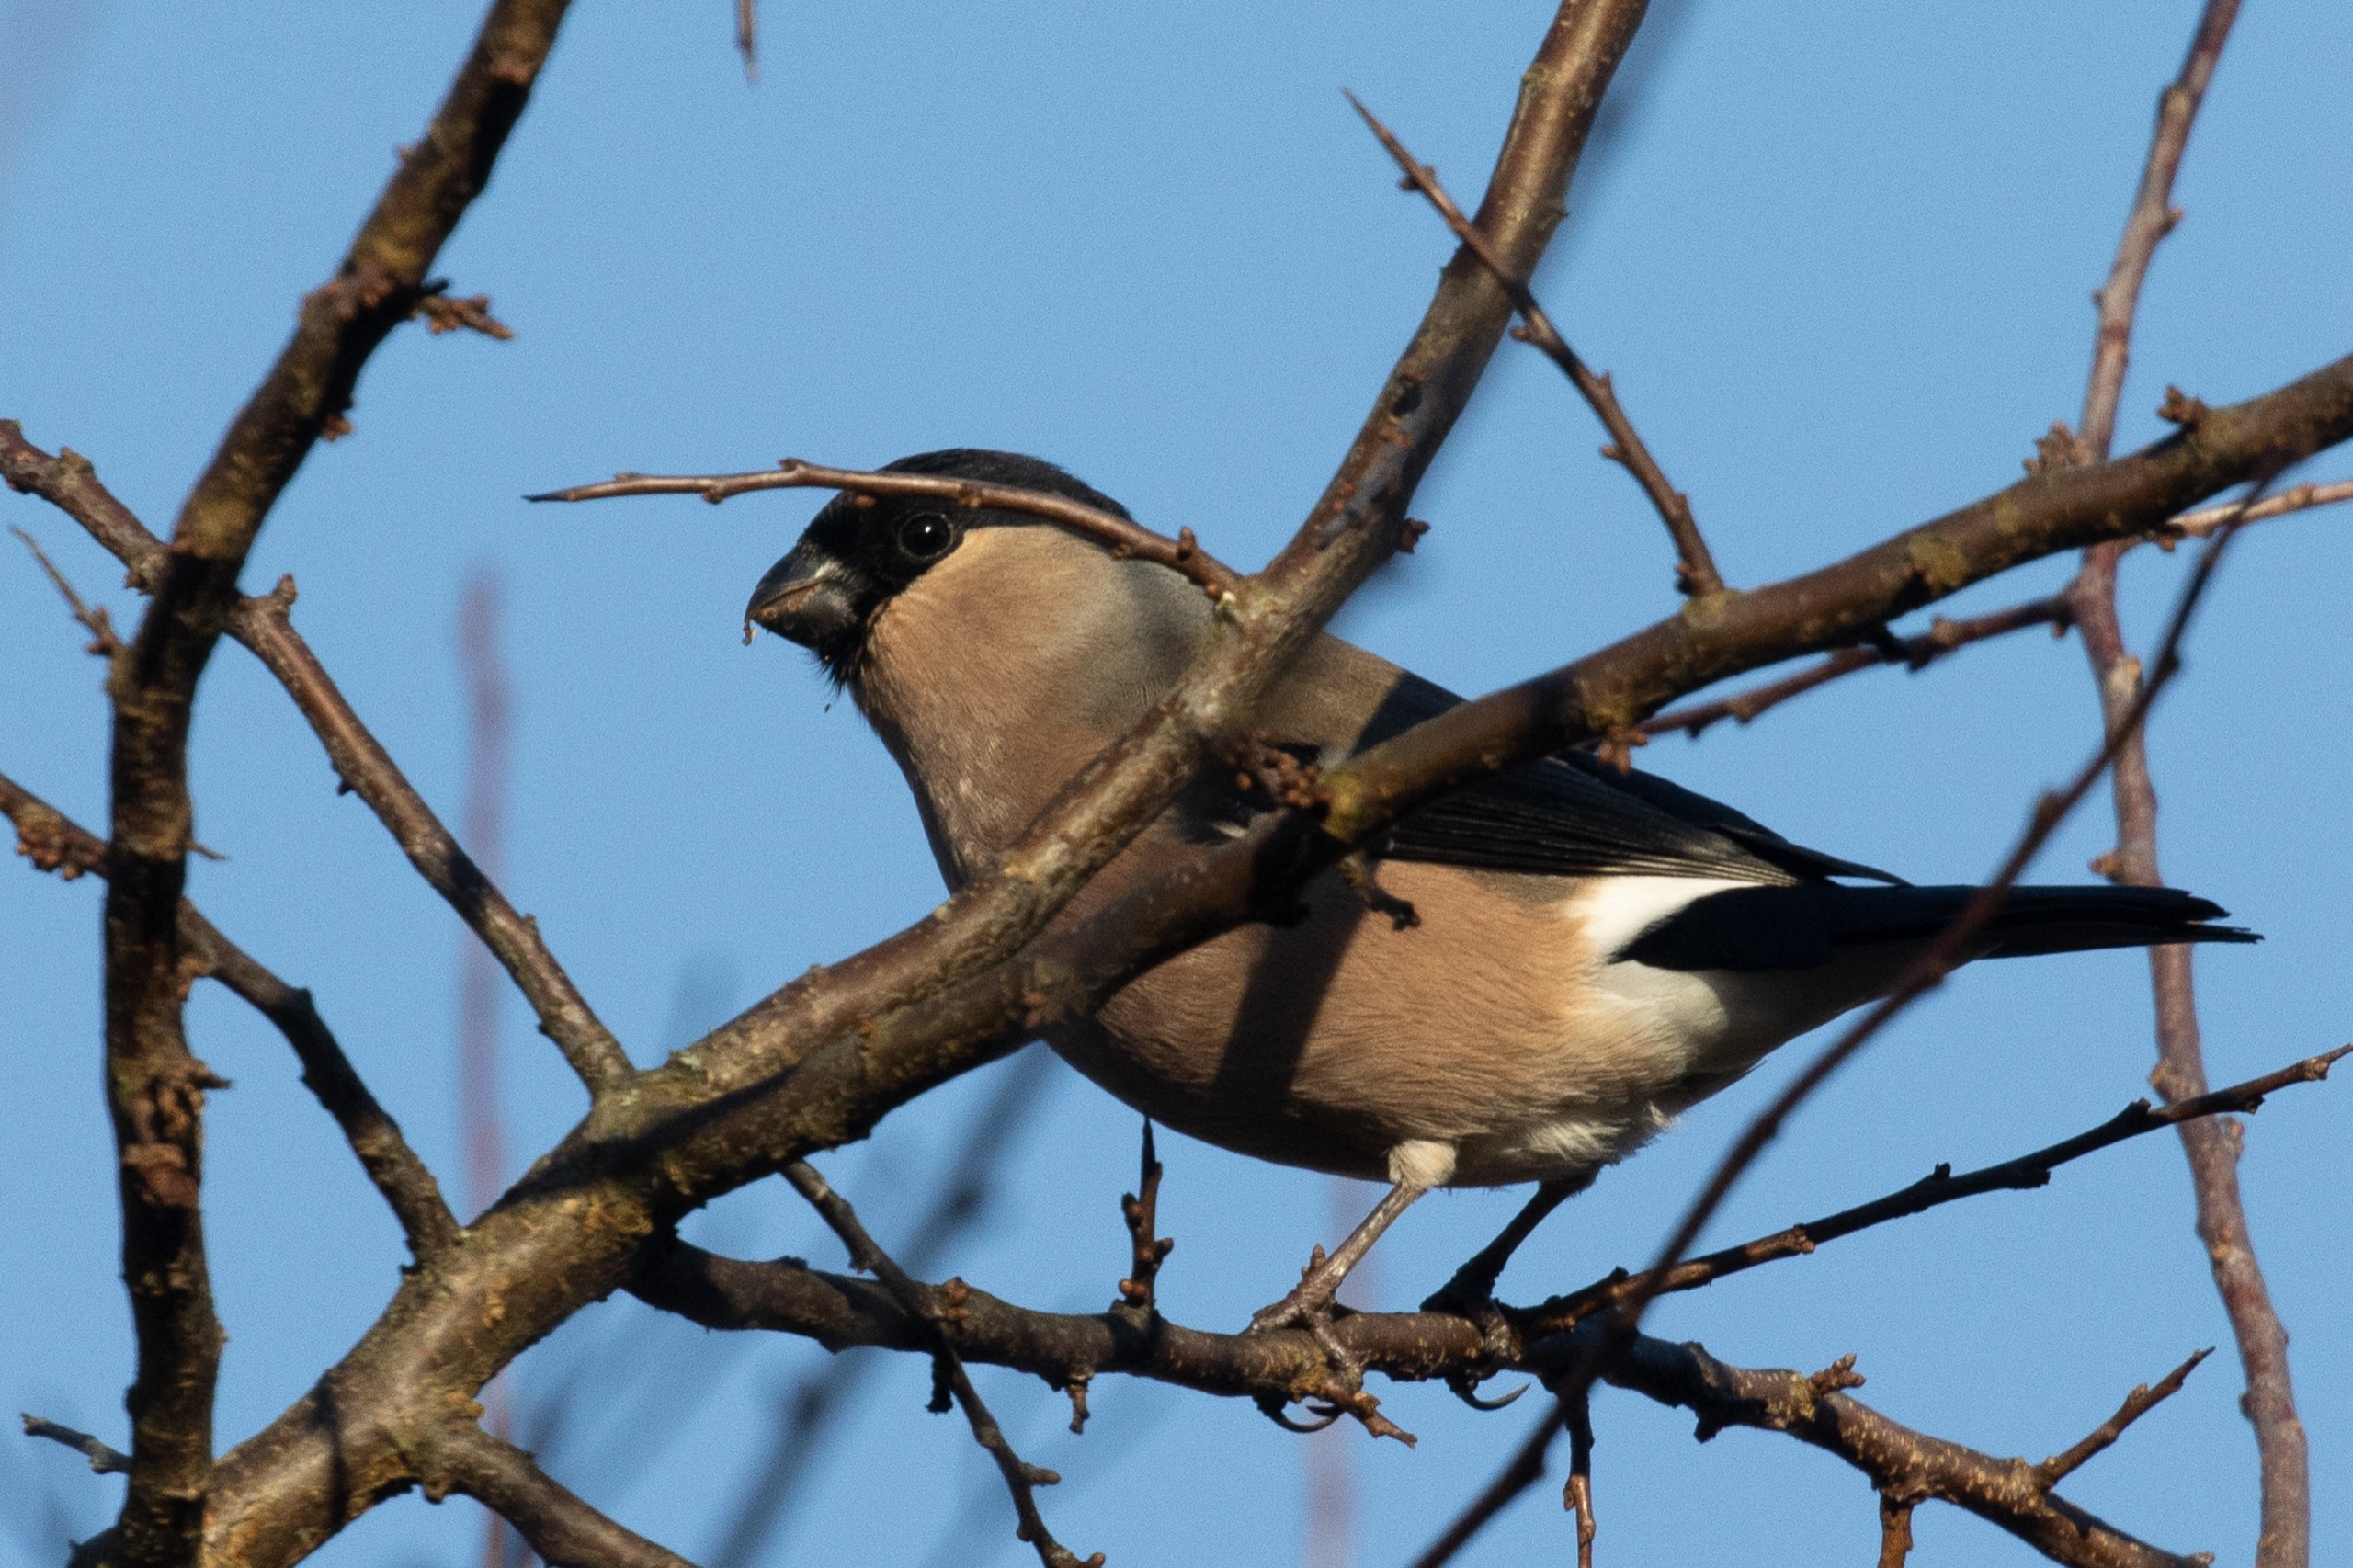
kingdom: Animalia
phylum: Chordata
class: Aves
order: Passeriformes
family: Fringillidae
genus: Pyrrhula
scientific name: Pyrrhula pyrrhula
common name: Dompap
